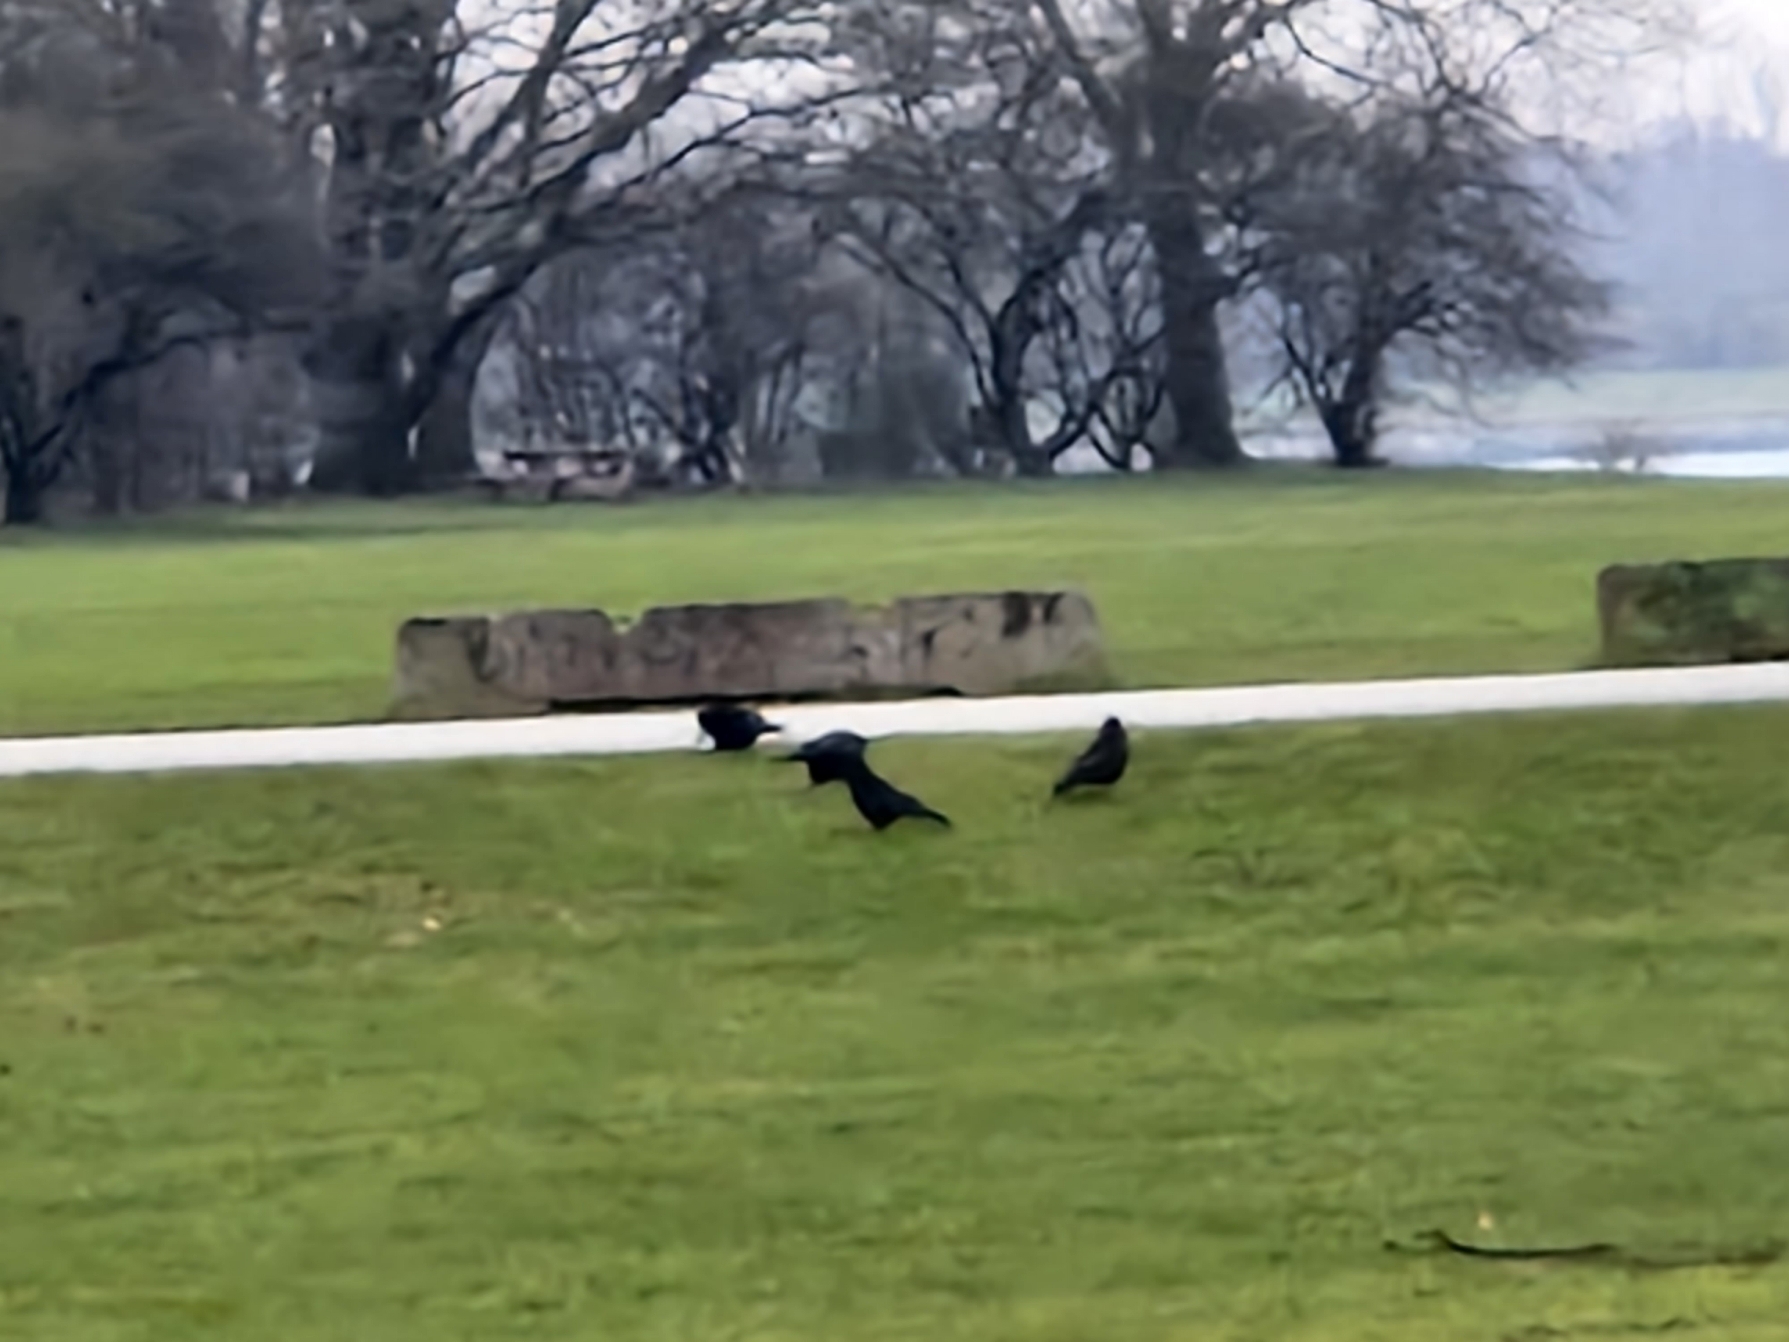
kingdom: Animalia
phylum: Chordata
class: Aves
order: Passeriformes
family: Corvidae
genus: Corvus
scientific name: Corvus frugilegus
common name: Råge
